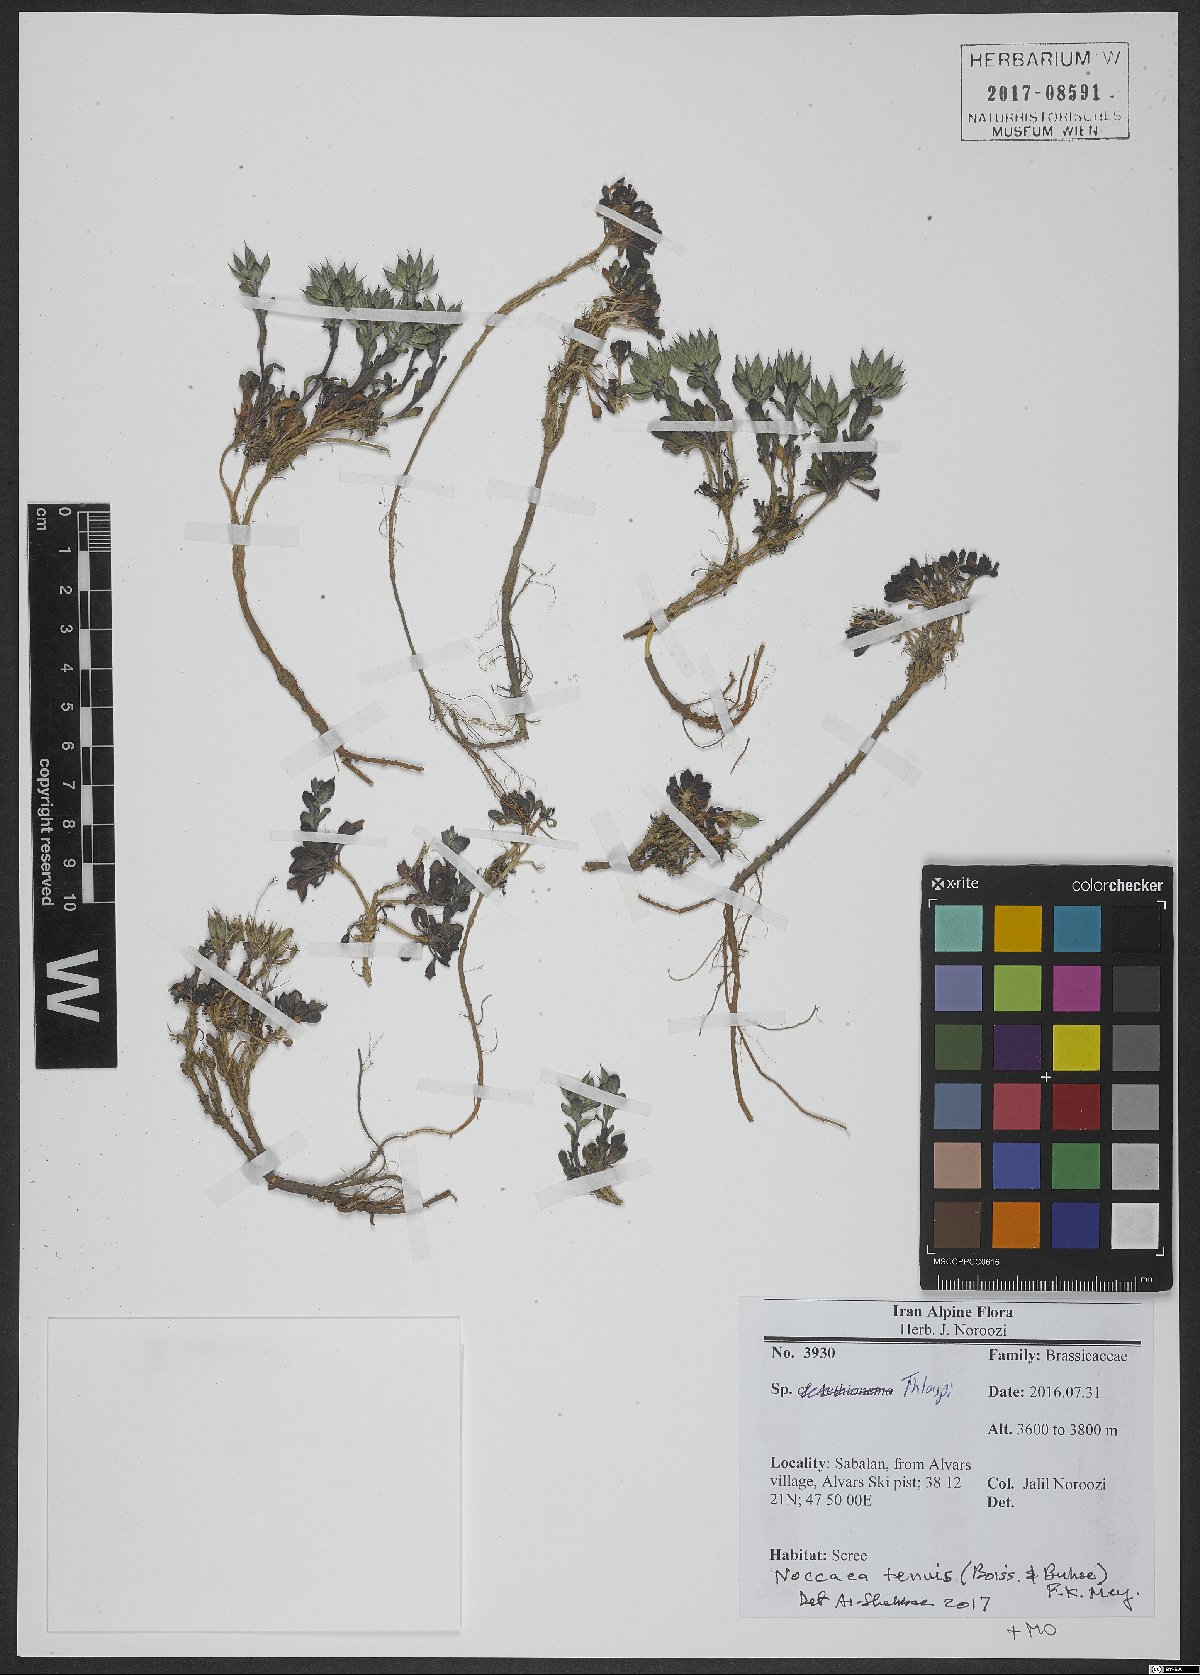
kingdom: Plantae
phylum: Tracheophyta
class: Magnoliopsida
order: Brassicales
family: Brassicaceae
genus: Noccaea
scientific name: Noccaea tenuis
